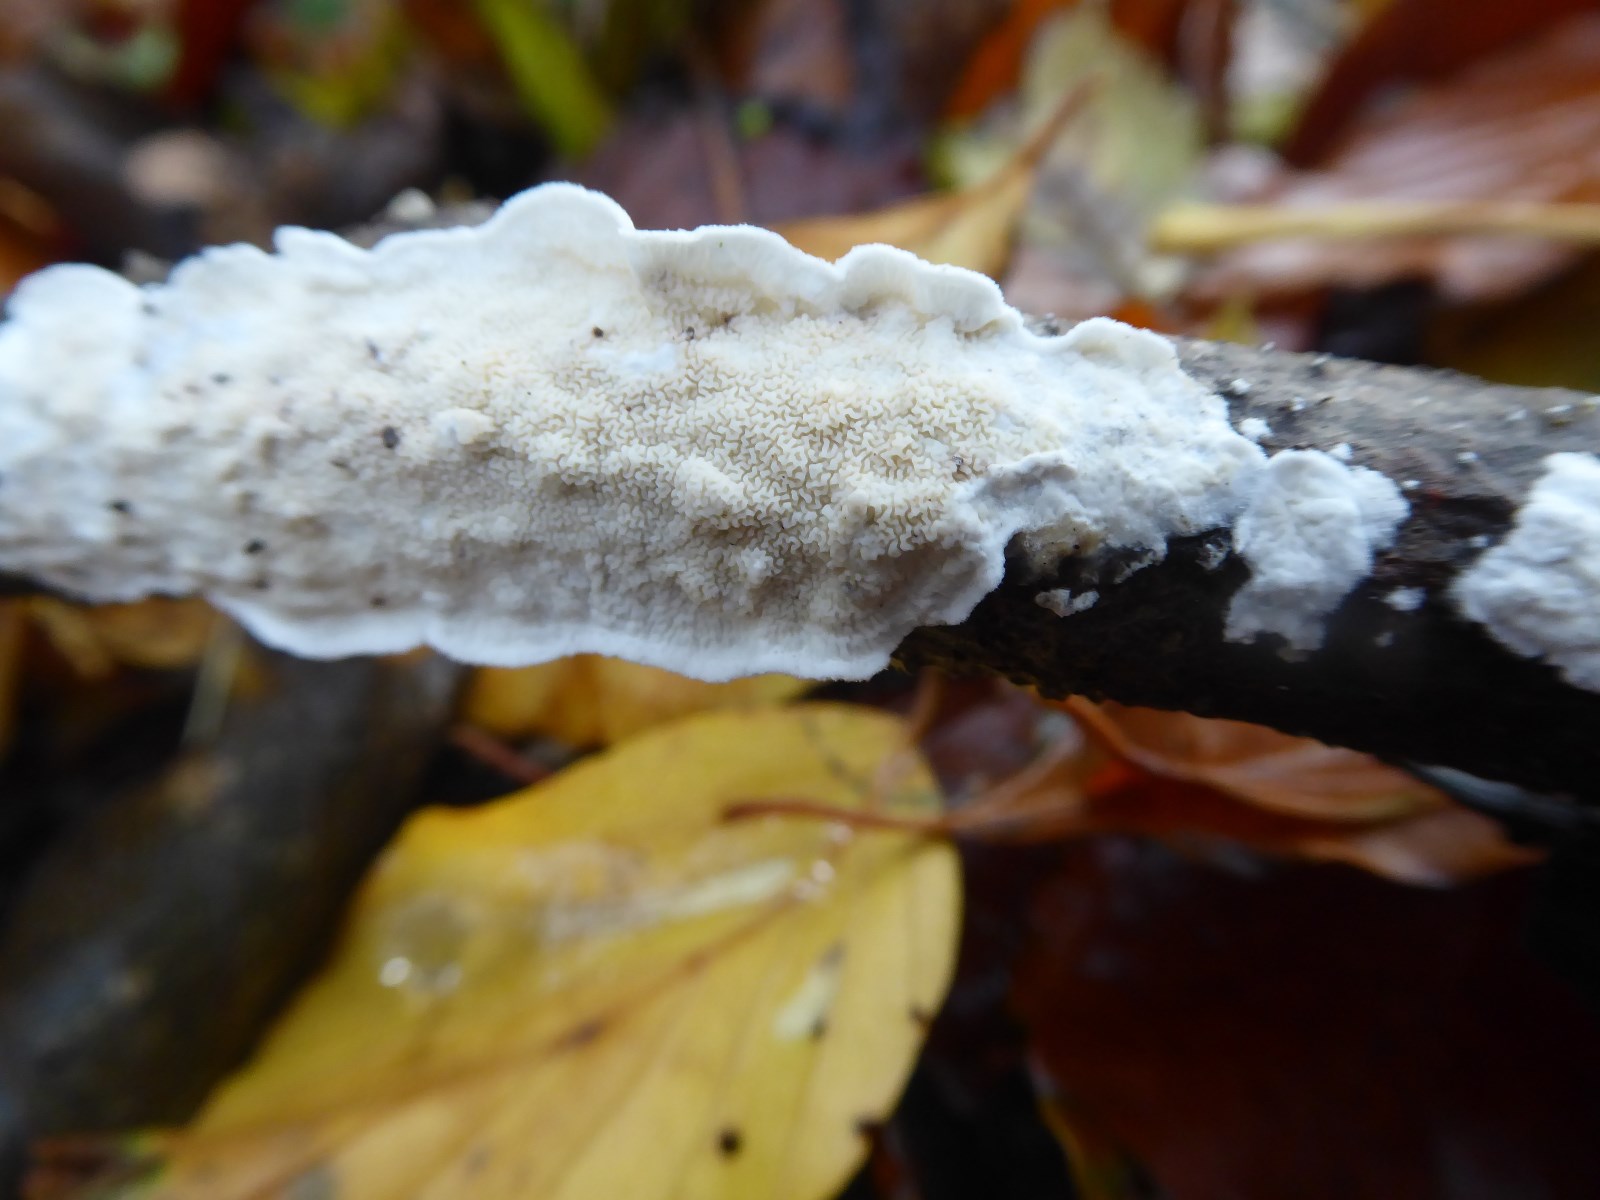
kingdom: Fungi
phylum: Basidiomycota
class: Agaricomycetes
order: Polyporales
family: Irpicaceae
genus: Byssomerulius
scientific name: Byssomerulius corium
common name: læder-åresvamp
